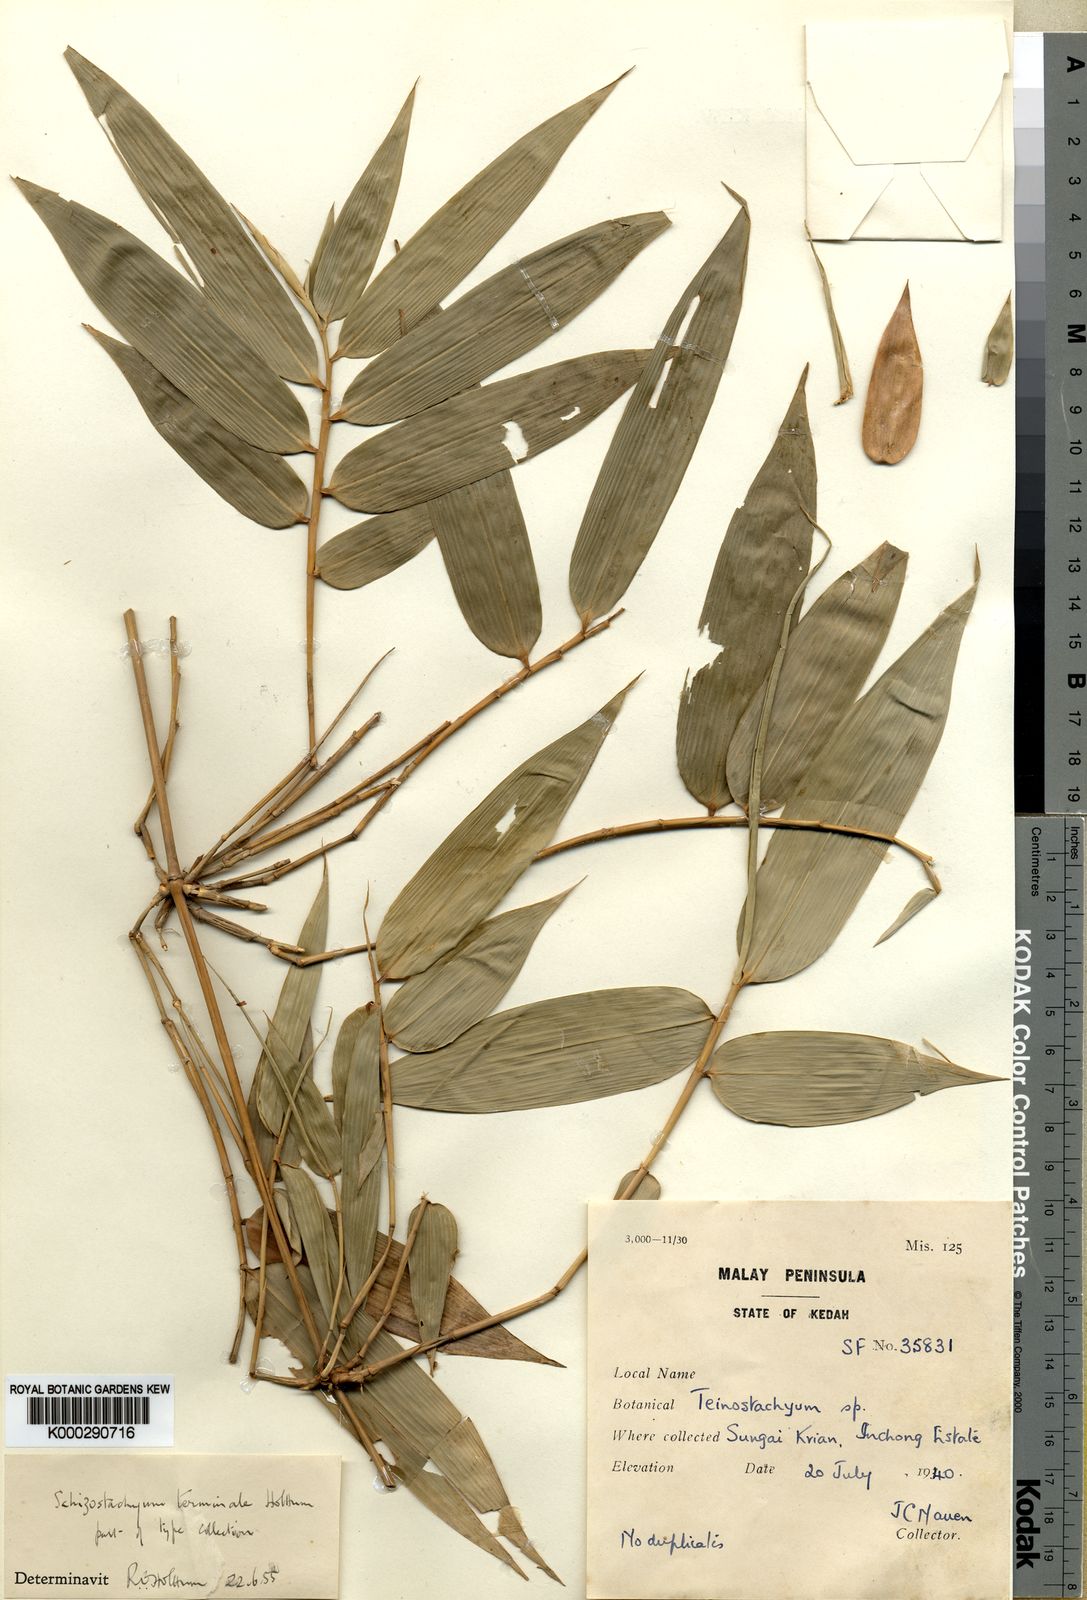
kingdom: Plantae
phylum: Tracheophyta
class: Liliopsida
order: Poales
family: Poaceae
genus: Schizostachyum
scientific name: Schizostachyum terminale
